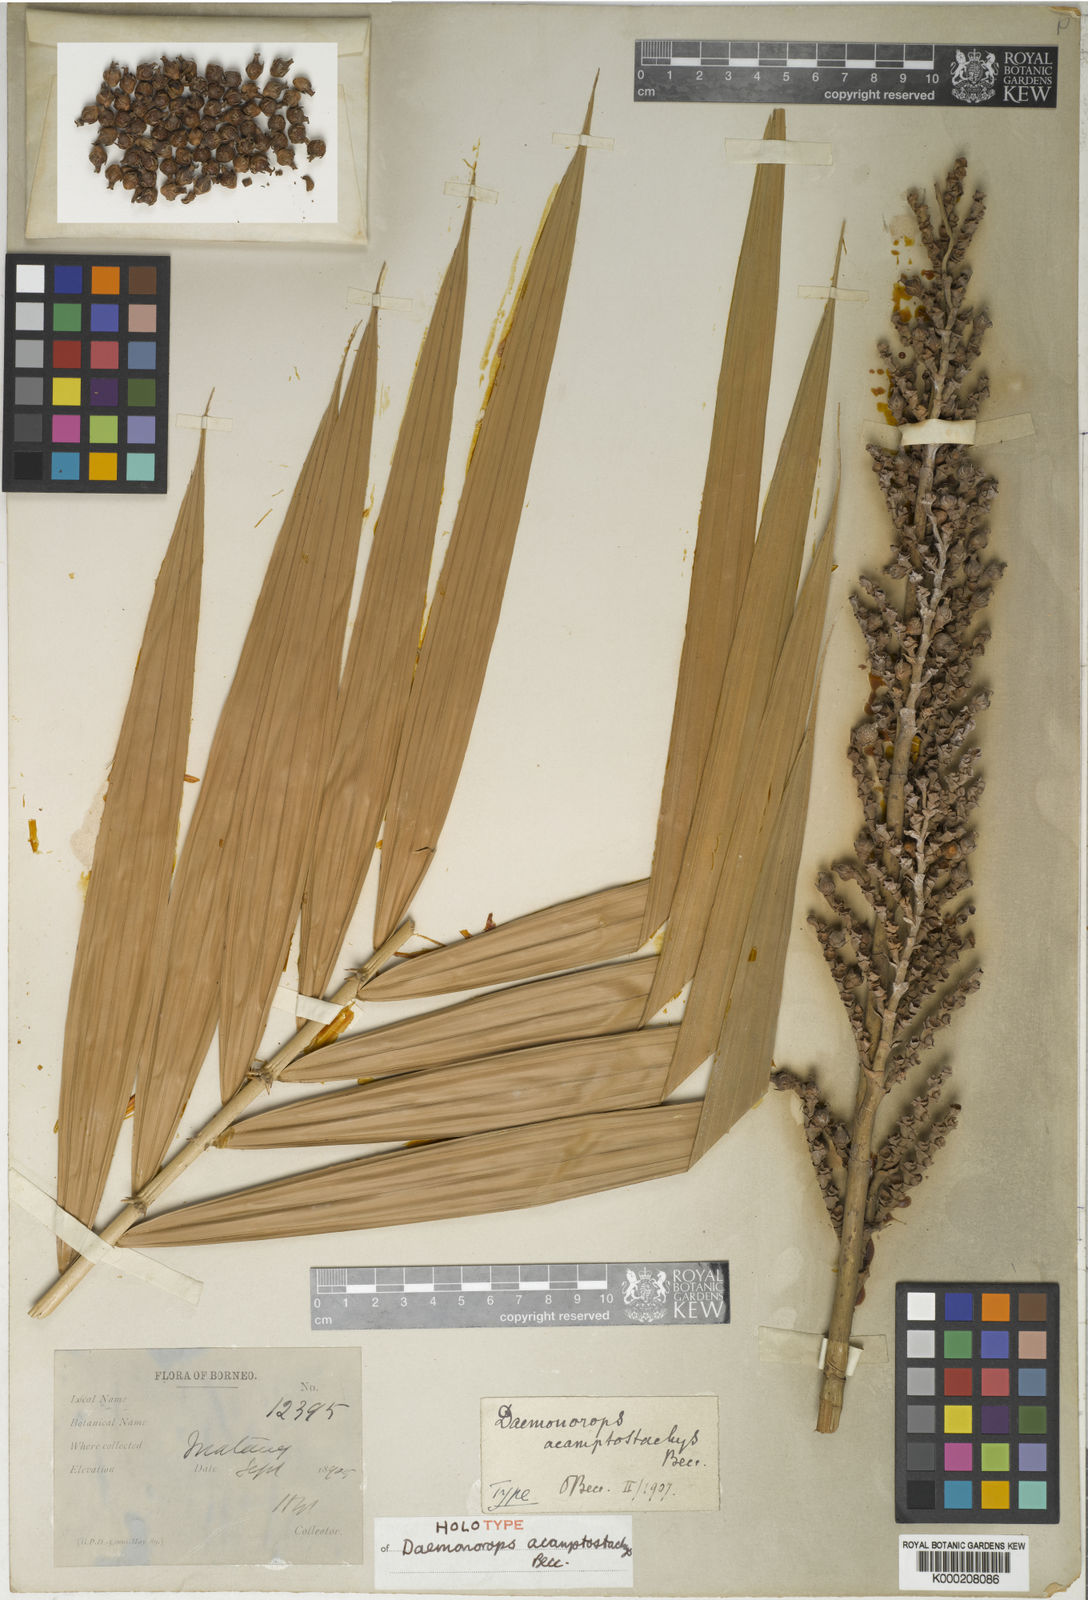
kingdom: Plantae
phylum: Tracheophyta
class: Liliopsida
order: Arecales
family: Arecaceae
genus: Calamus
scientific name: Calamus acamptostachys
